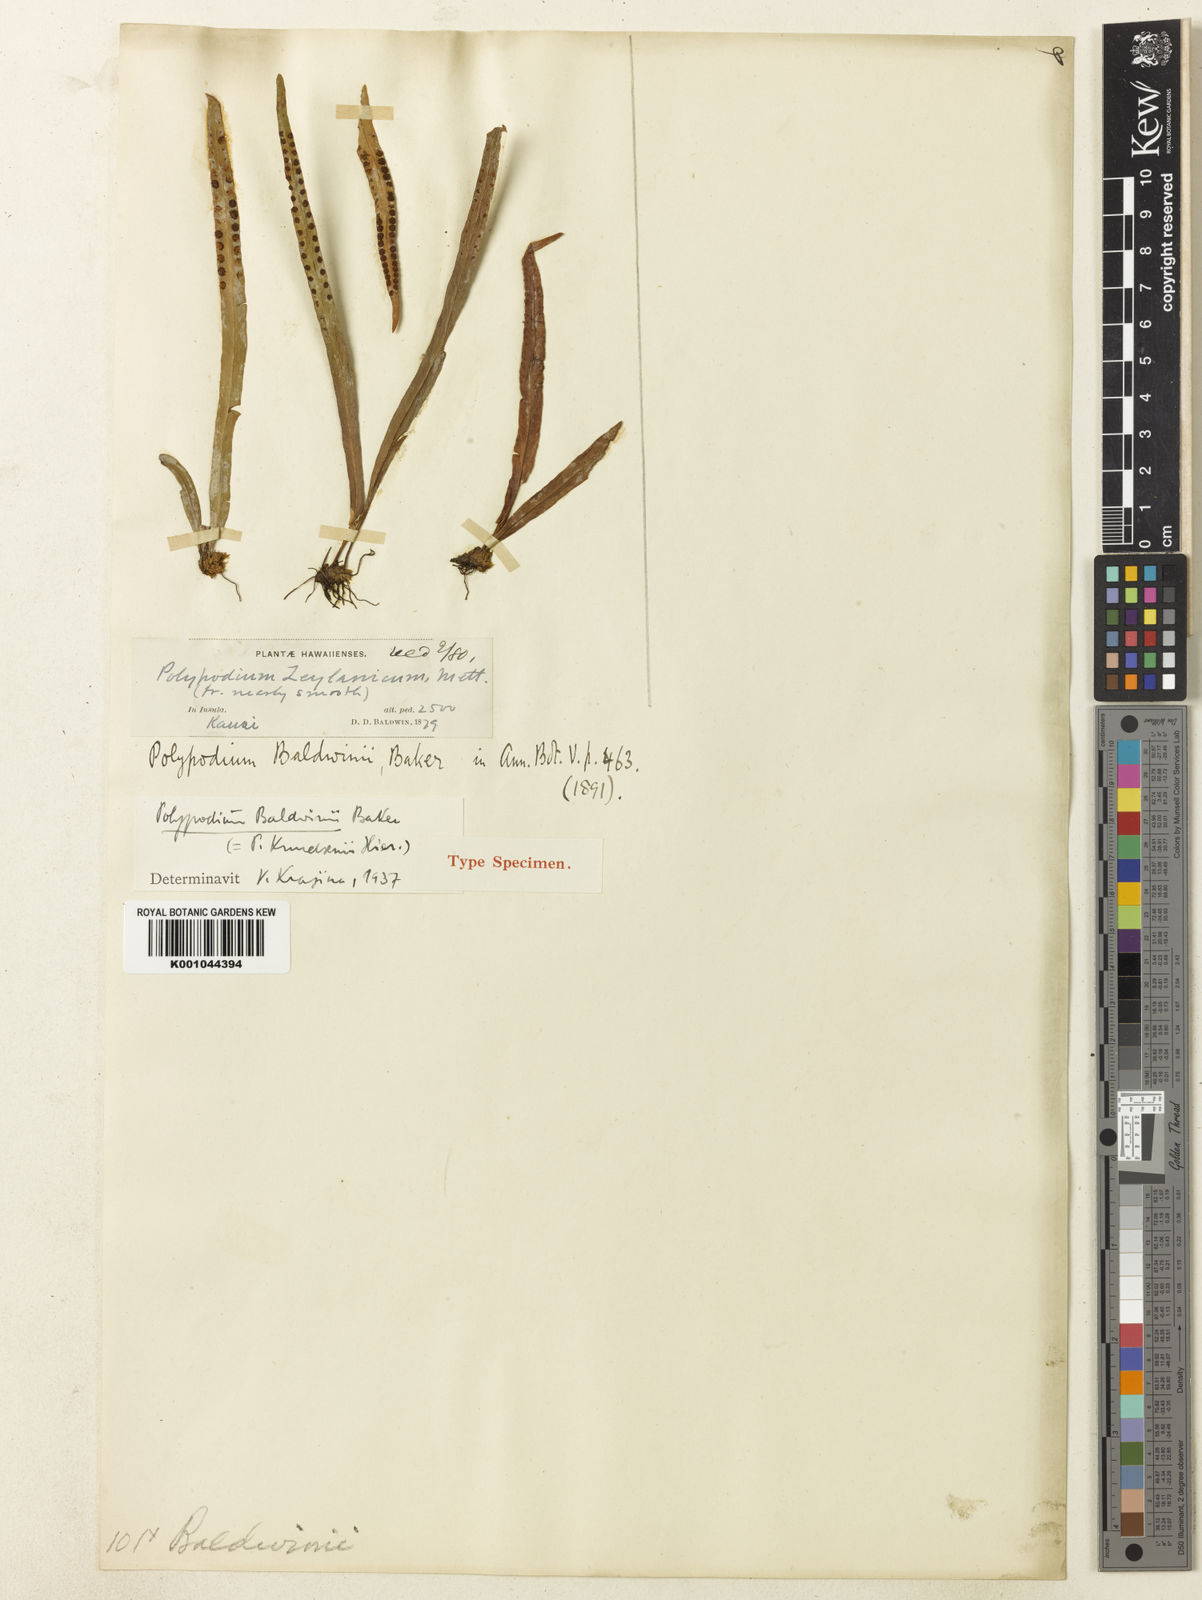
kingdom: Plantae
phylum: Tracheophyta
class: Polypodiopsida
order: Polypodiales
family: Polypodiaceae
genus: Oreogrammitis
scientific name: Oreogrammitis baldwinii
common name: Baldwin's dwarf polypody
